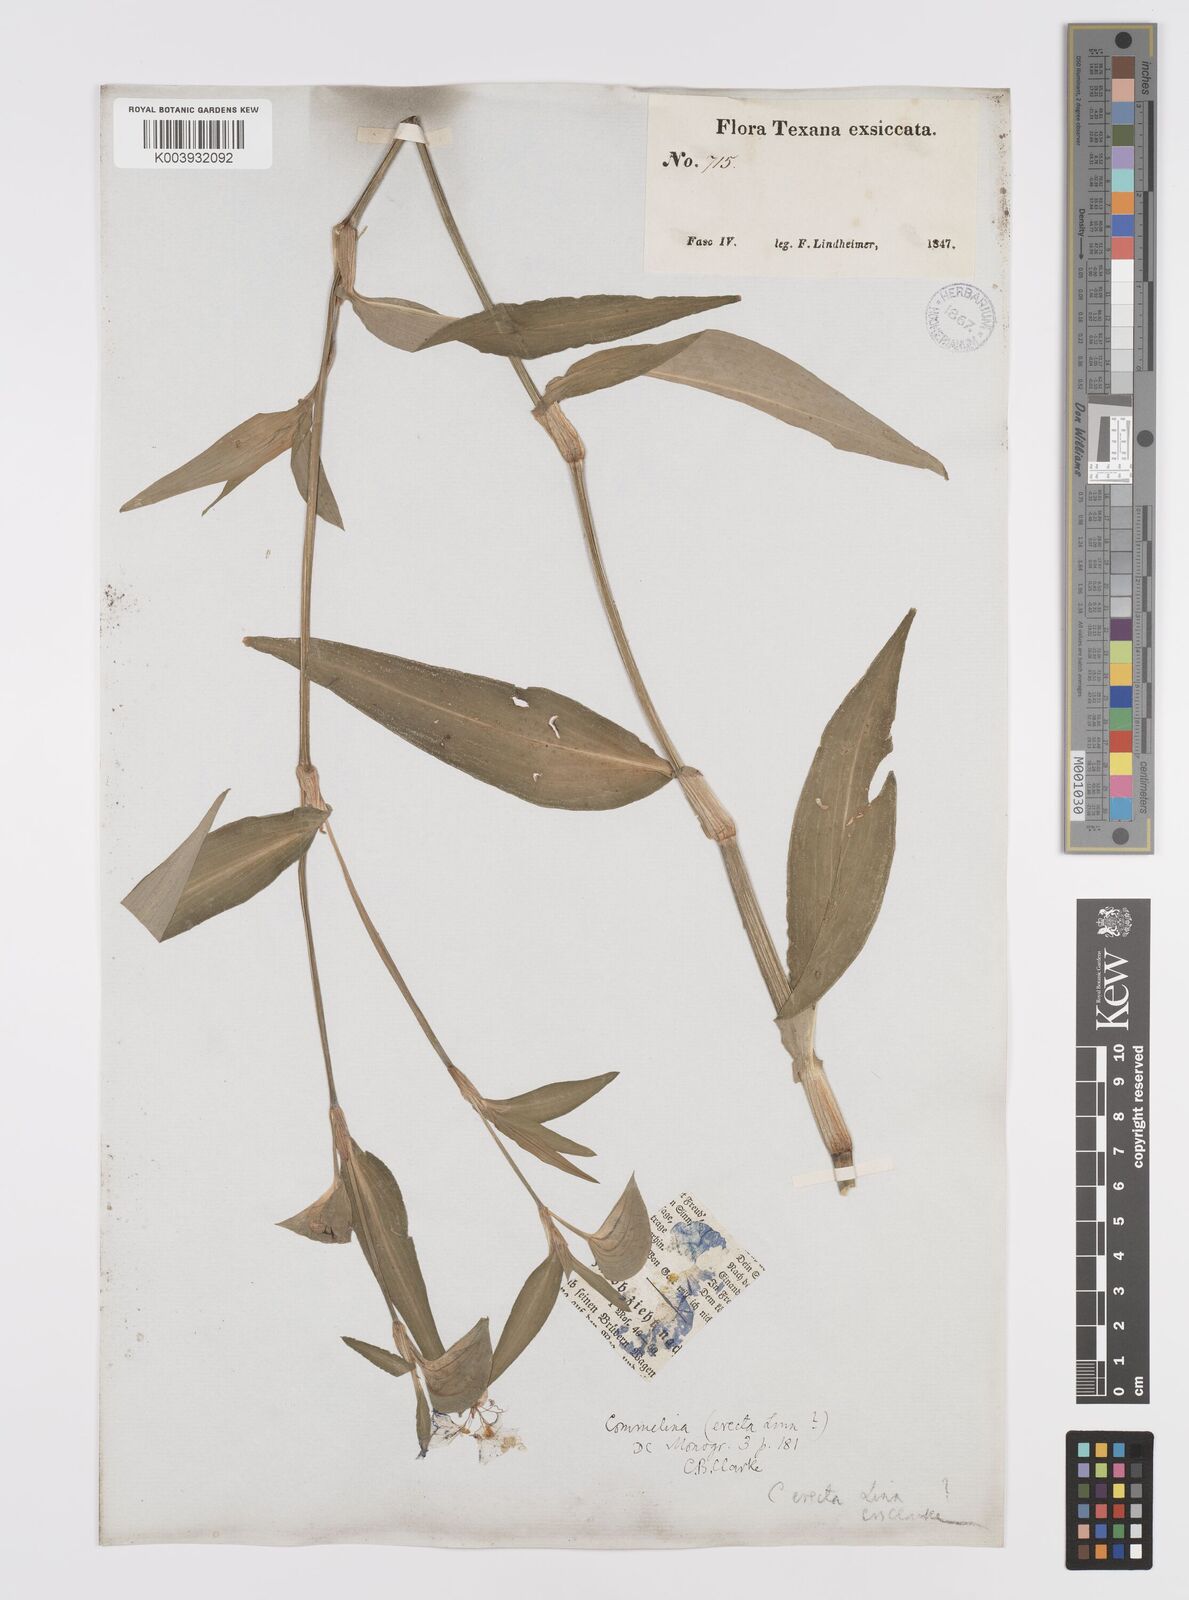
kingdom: Plantae
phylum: Tracheophyta
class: Liliopsida
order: Commelinales
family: Commelinaceae
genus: Commelina
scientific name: Commelina erecta
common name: Blousel blommetjie
